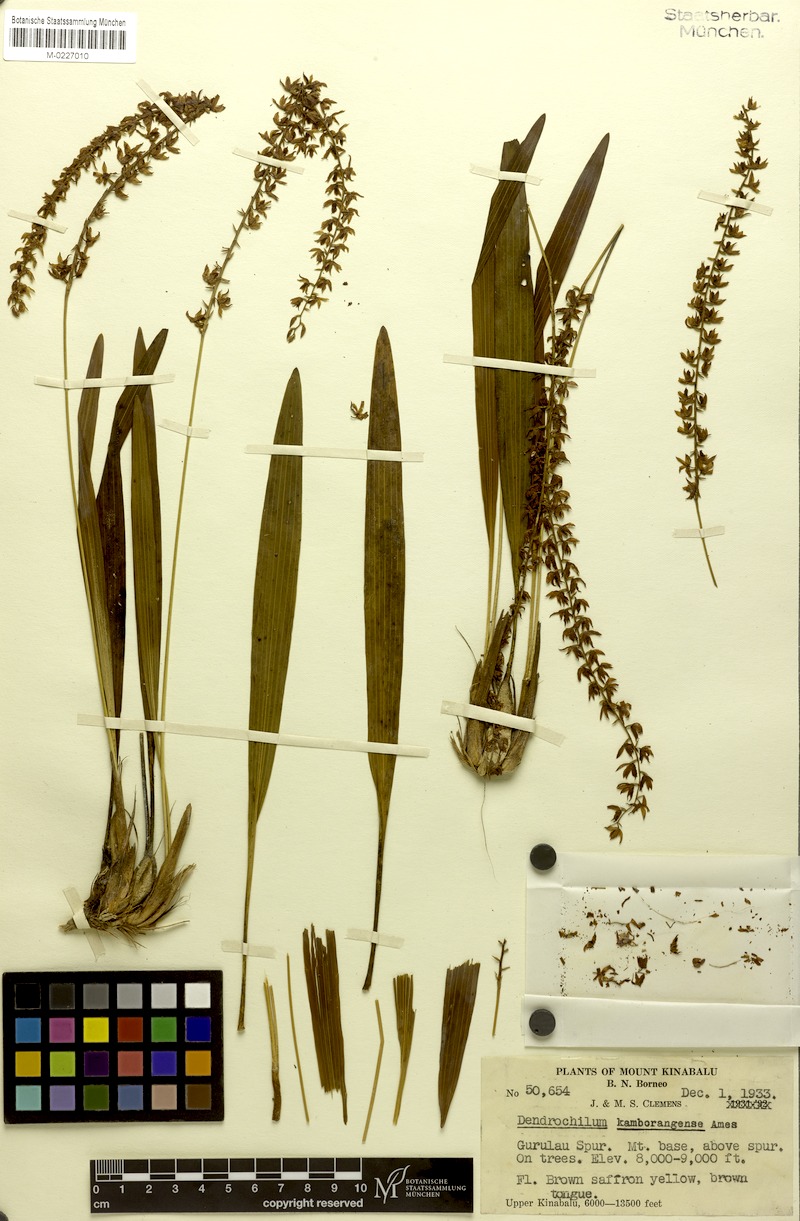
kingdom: Plantae
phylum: Tracheophyta
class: Liliopsida
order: Asparagales
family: Orchidaceae
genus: Coelogyne
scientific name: Coelogyne kamborangensis
